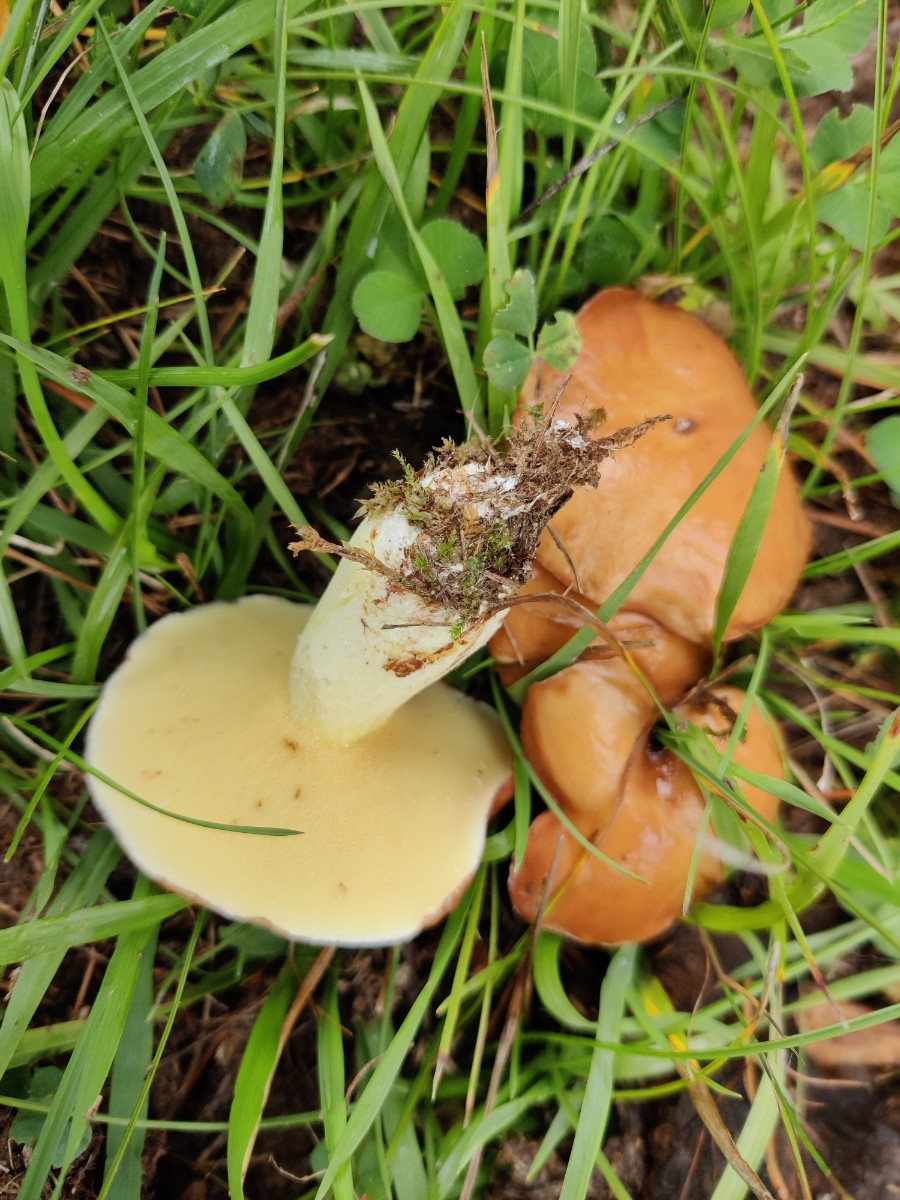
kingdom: Fungi
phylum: Basidiomycota
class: Agaricomycetes
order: Boletales
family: Suillaceae
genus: Suillus
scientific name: Suillus granulatus
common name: kornet slimrørhat
